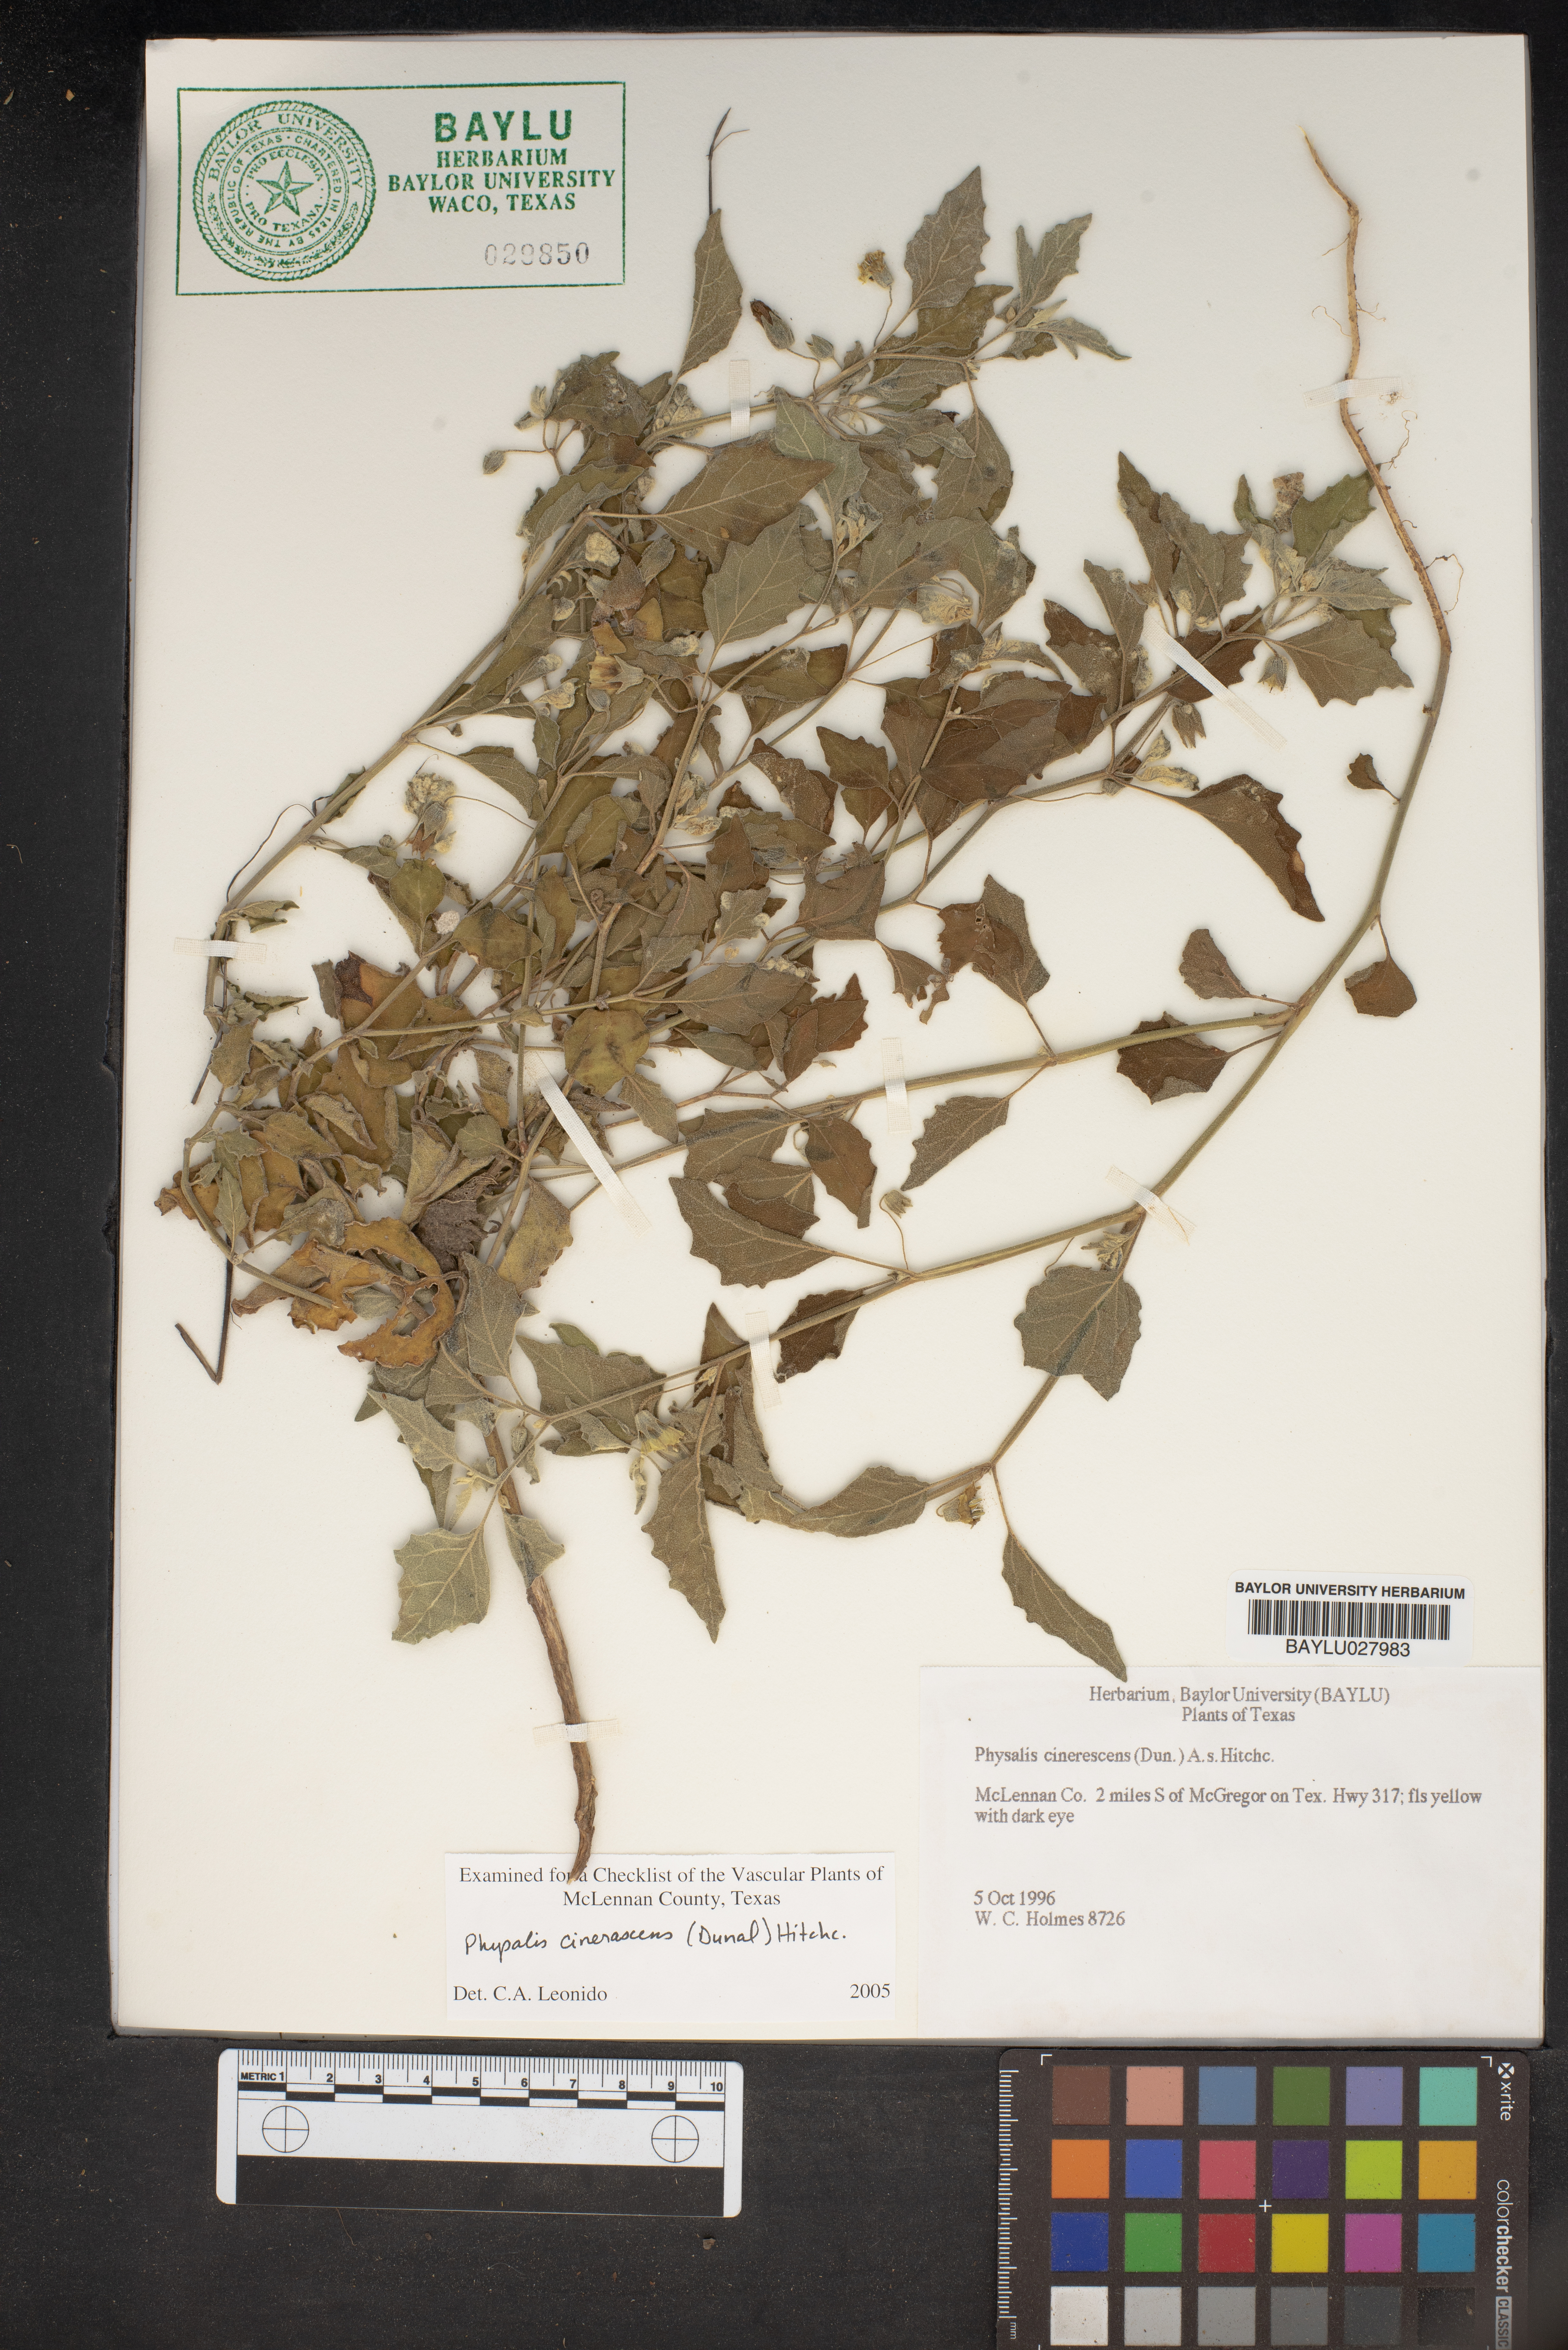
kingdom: Plantae
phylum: Tracheophyta
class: Magnoliopsida
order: Solanales
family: Solanaceae
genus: Physalis
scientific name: Physalis cinerascens
